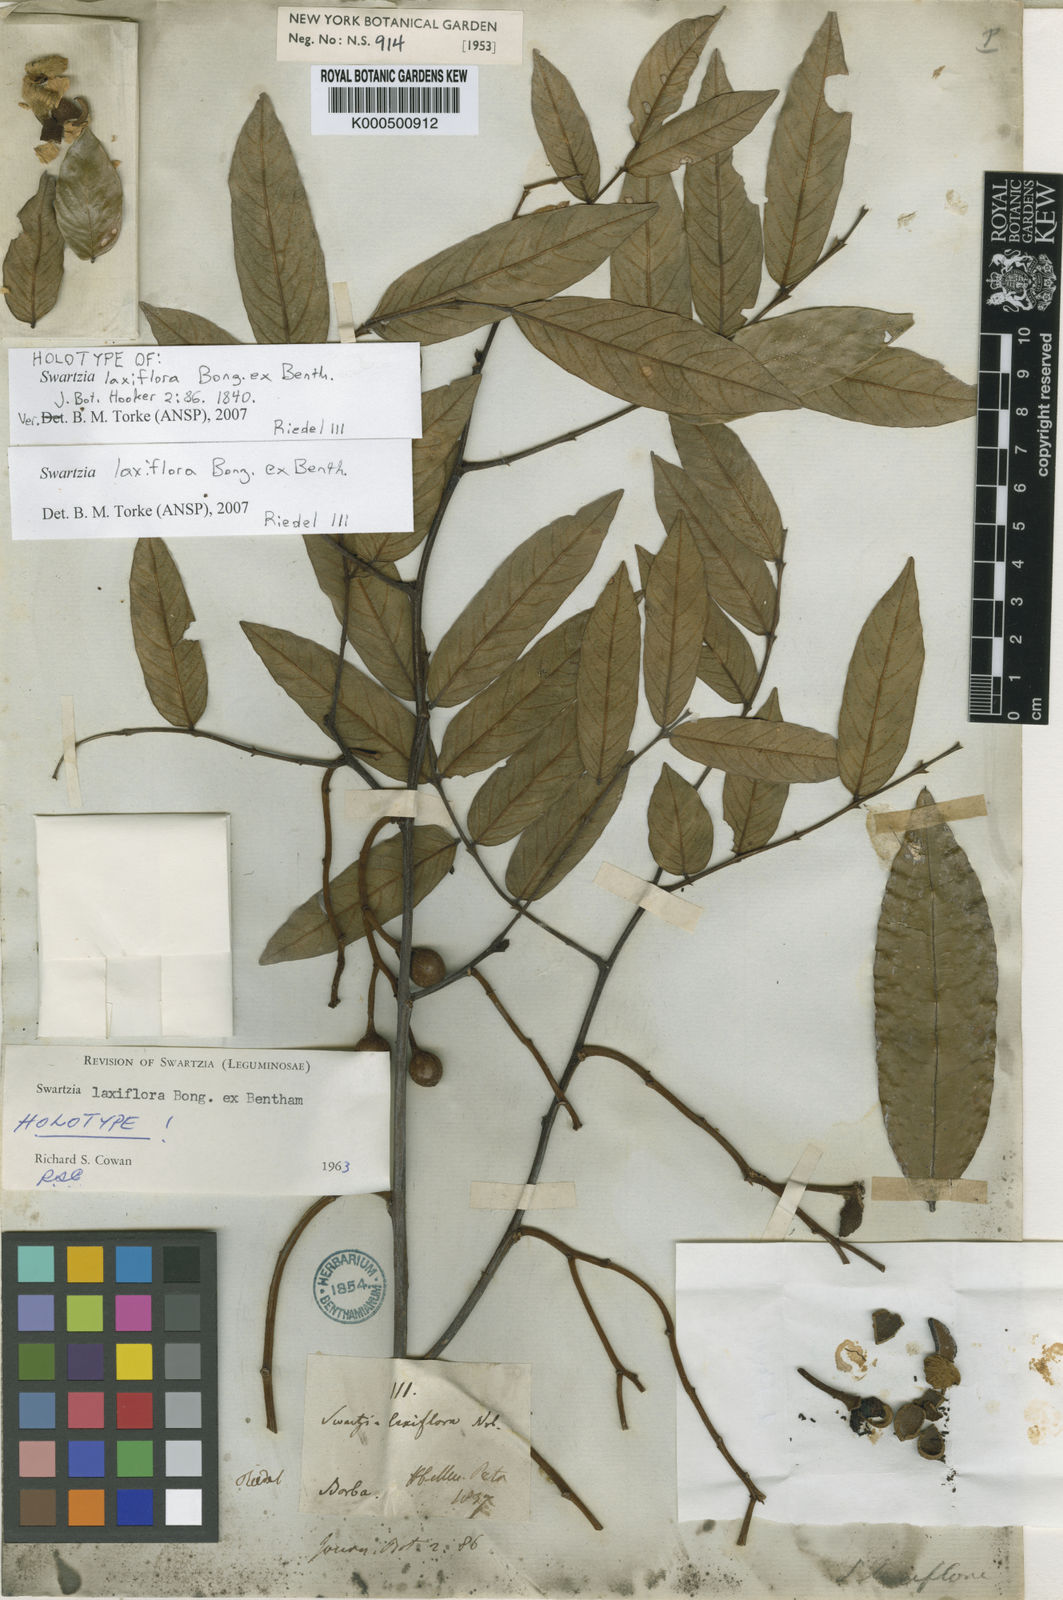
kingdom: Plantae
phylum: Tracheophyta
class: Magnoliopsida
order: Fabales
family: Fabaceae
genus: Swartzia
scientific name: Swartzia laxiflora
